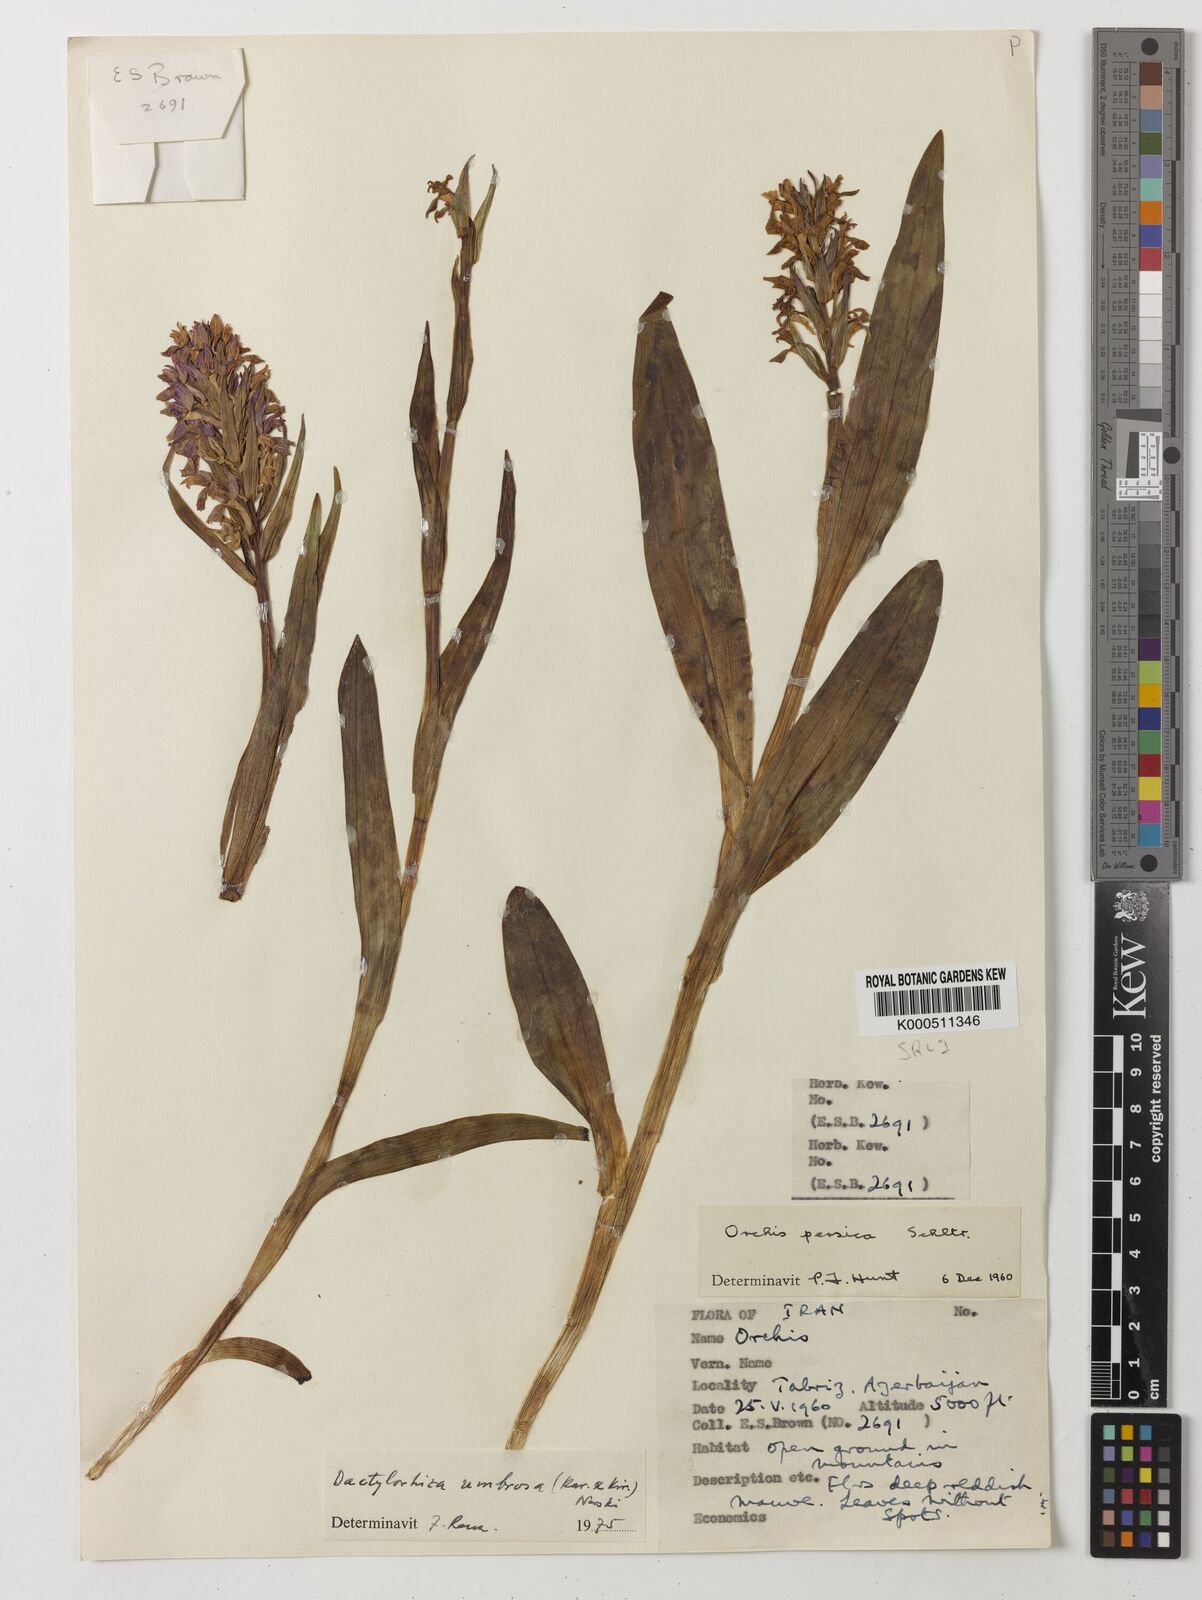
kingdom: Plantae
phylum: Tracheophyta
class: Liliopsida
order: Asparagales
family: Orchidaceae
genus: Dactylorhiza
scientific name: Dactylorhiza
